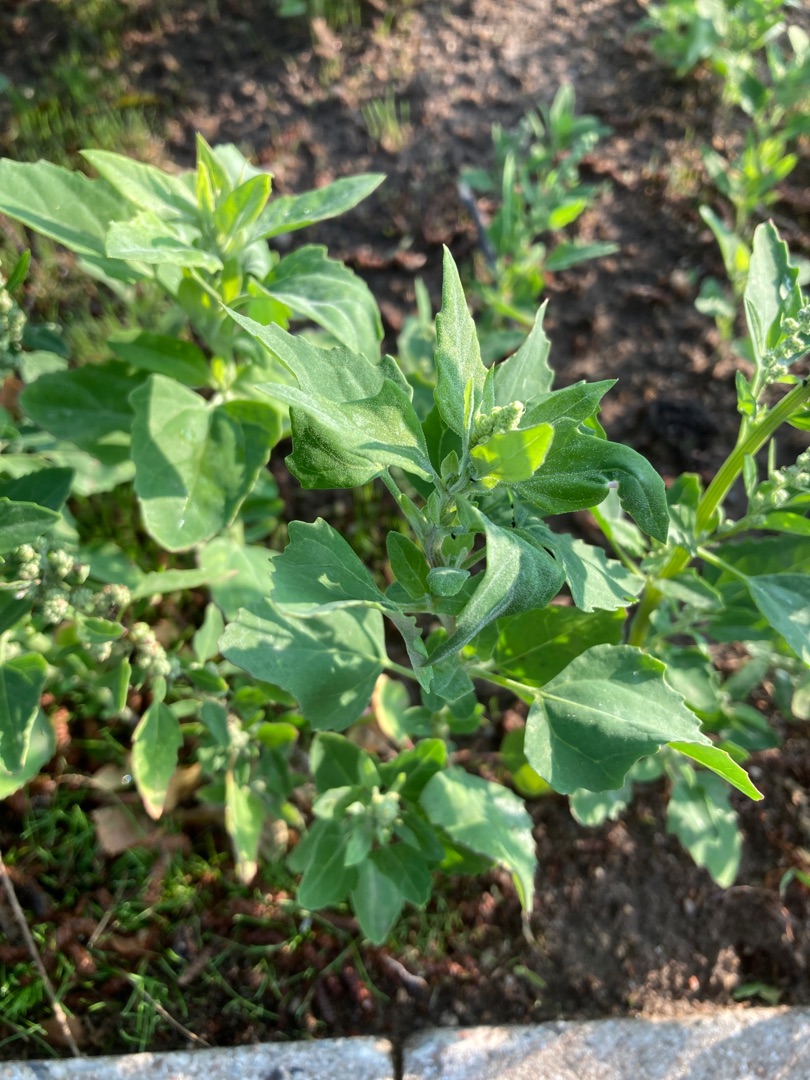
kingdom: Plantae
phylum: Tracheophyta
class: Magnoliopsida
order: Caryophyllales
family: Amaranthaceae
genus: Chenopodium
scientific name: Chenopodium album
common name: Hvidmelet gåsefod
